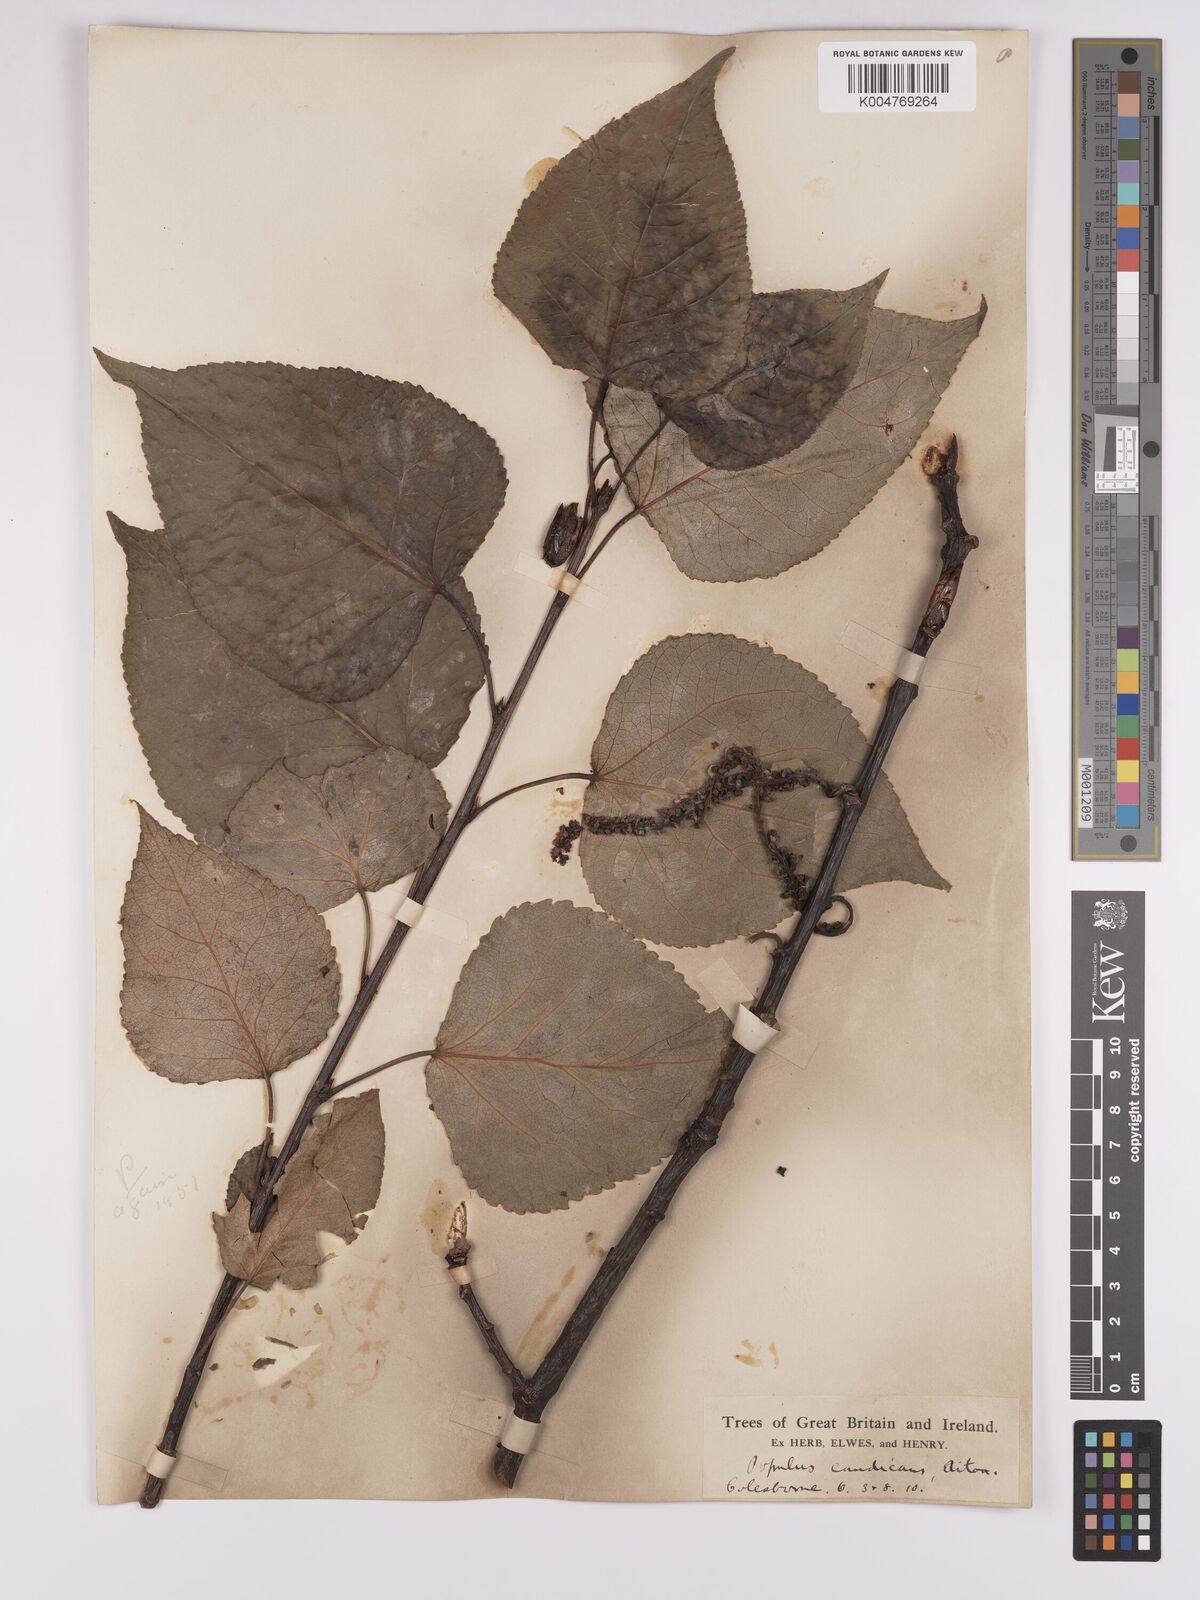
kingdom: Plantae
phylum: Tracheophyta
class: Magnoliopsida
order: Malpighiales
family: Salicaceae
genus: Populus
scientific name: Populus jackii
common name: Balm-of-gilead
